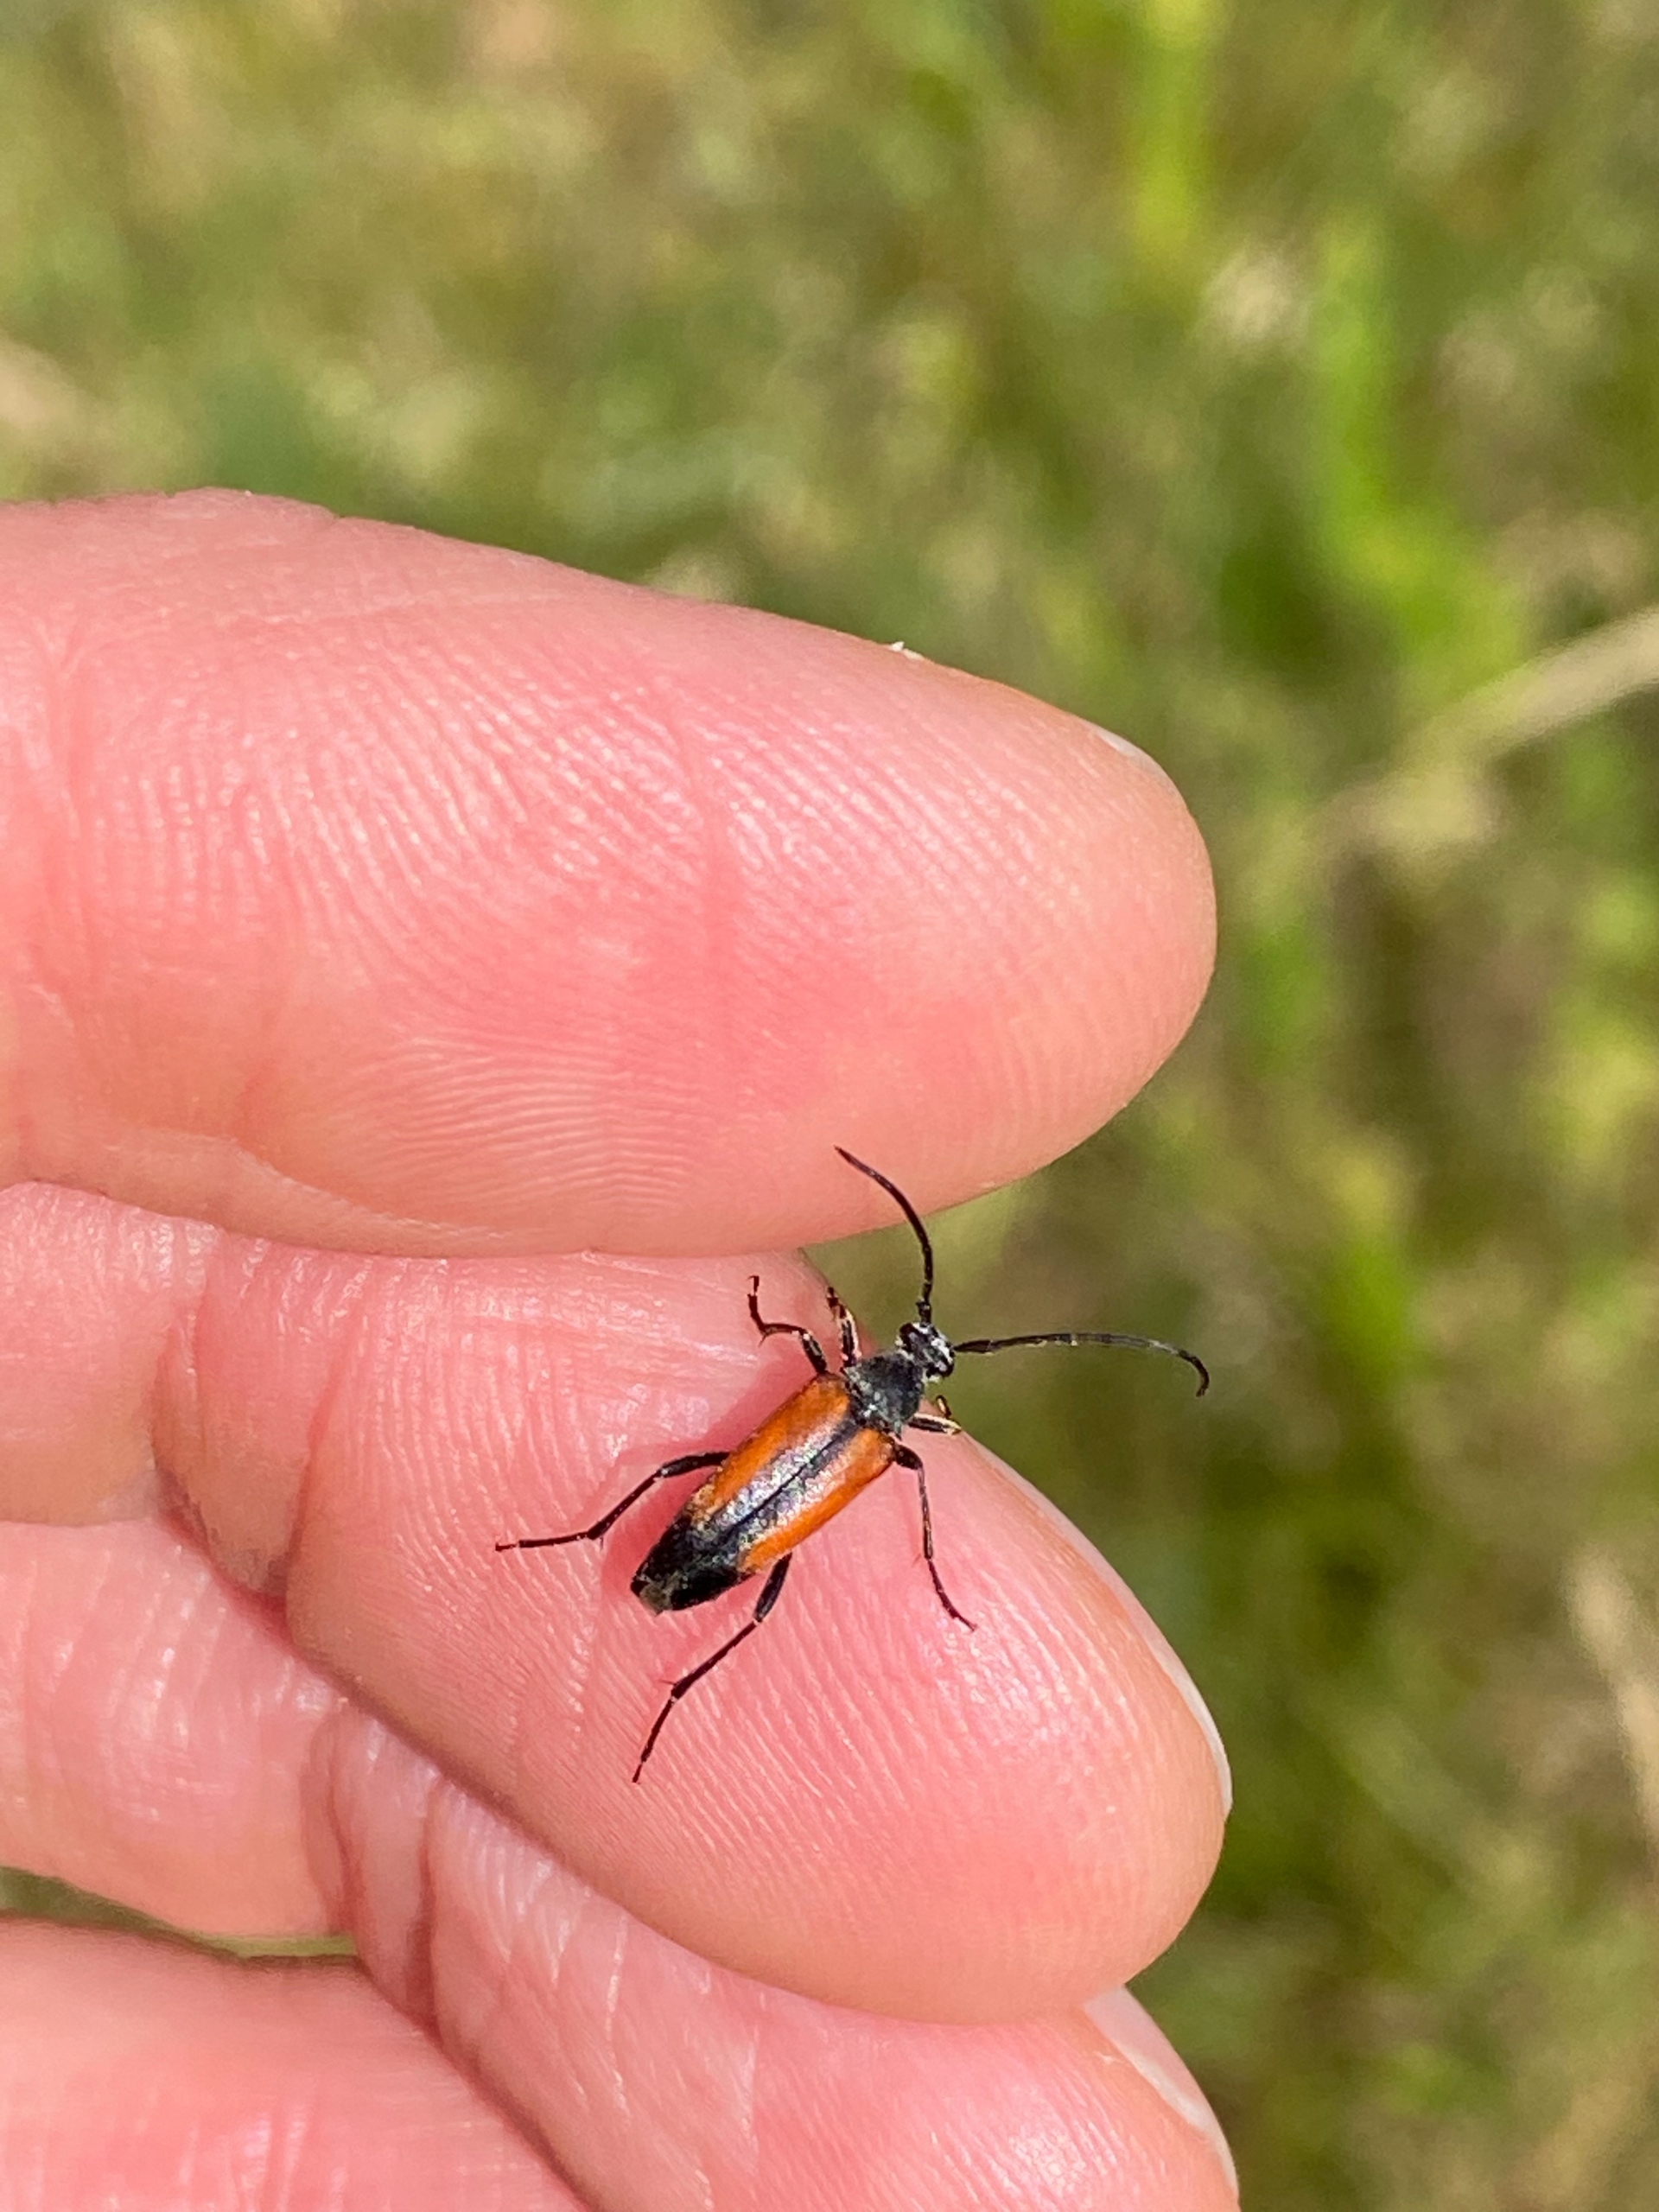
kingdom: Animalia
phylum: Arthropoda
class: Insecta
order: Coleoptera
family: Cerambycidae
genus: Stenurella
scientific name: Stenurella melanura
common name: Sortsømmet blomsterbuk
